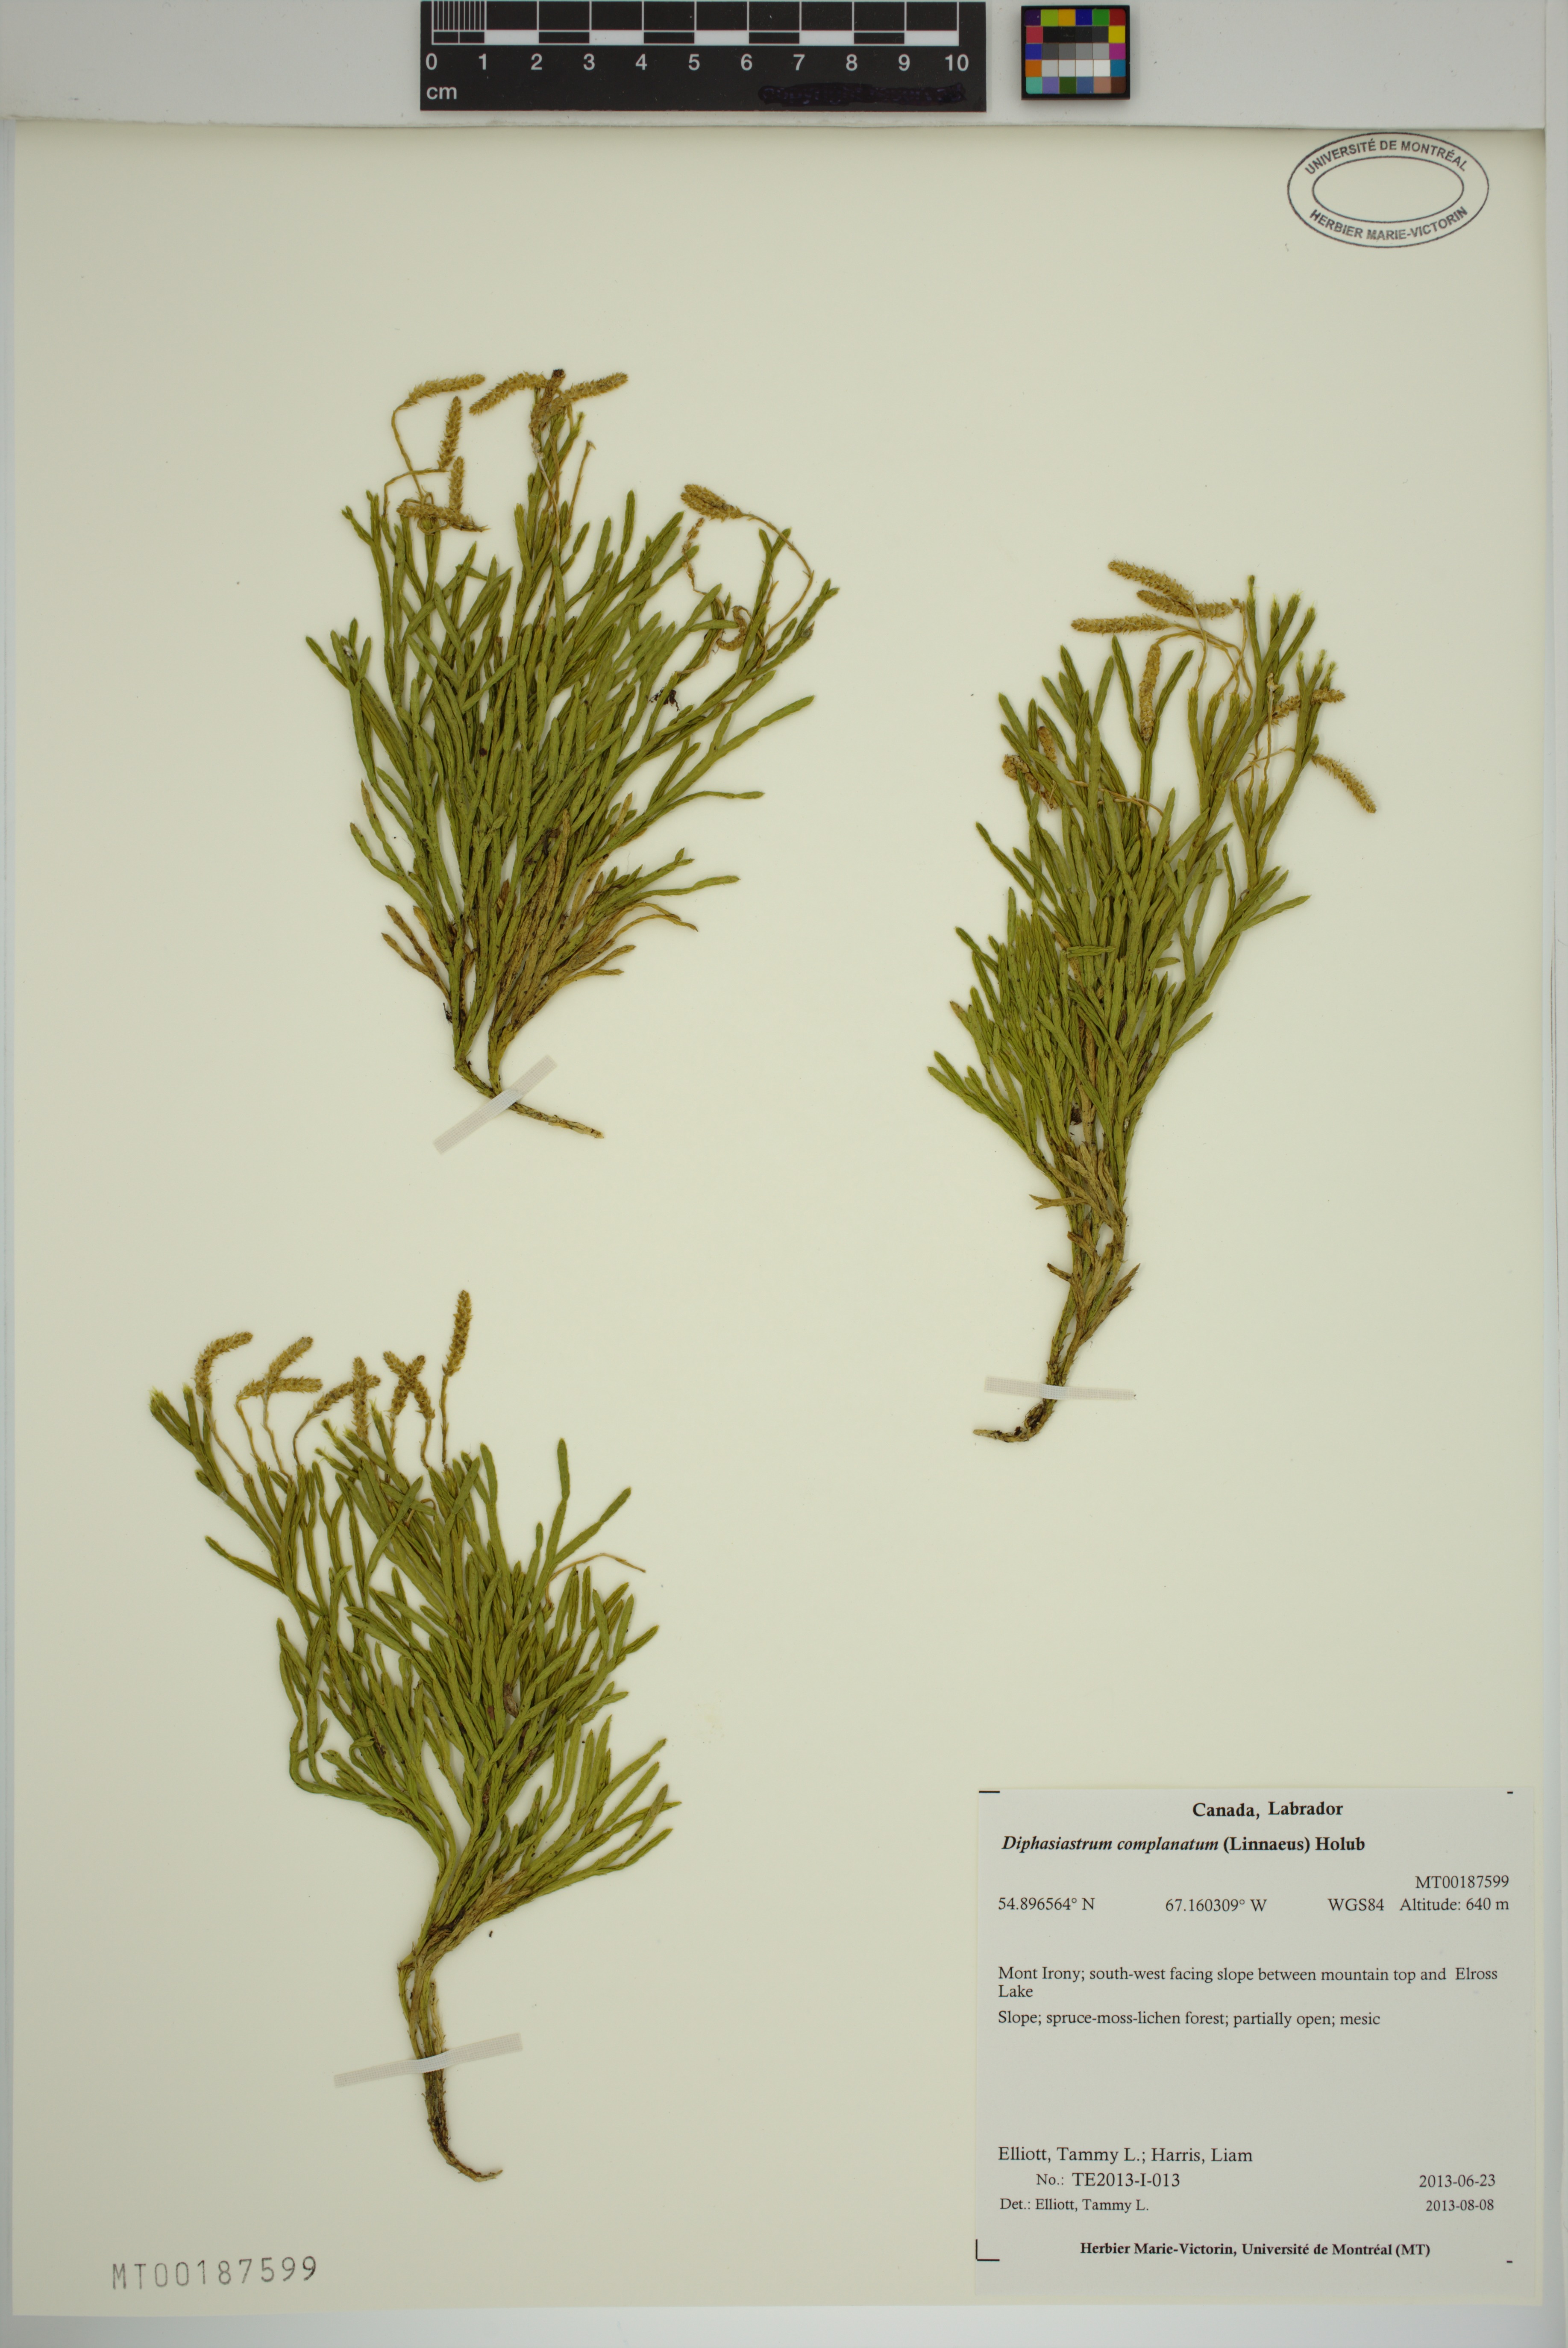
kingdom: Plantae
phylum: Tracheophyta
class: Lycopodiopsida
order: Lycopodiales
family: Lycopodiaceae
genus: Diphasiastrum
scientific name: Diphasiastrum complanatum
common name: Northern running-pine
